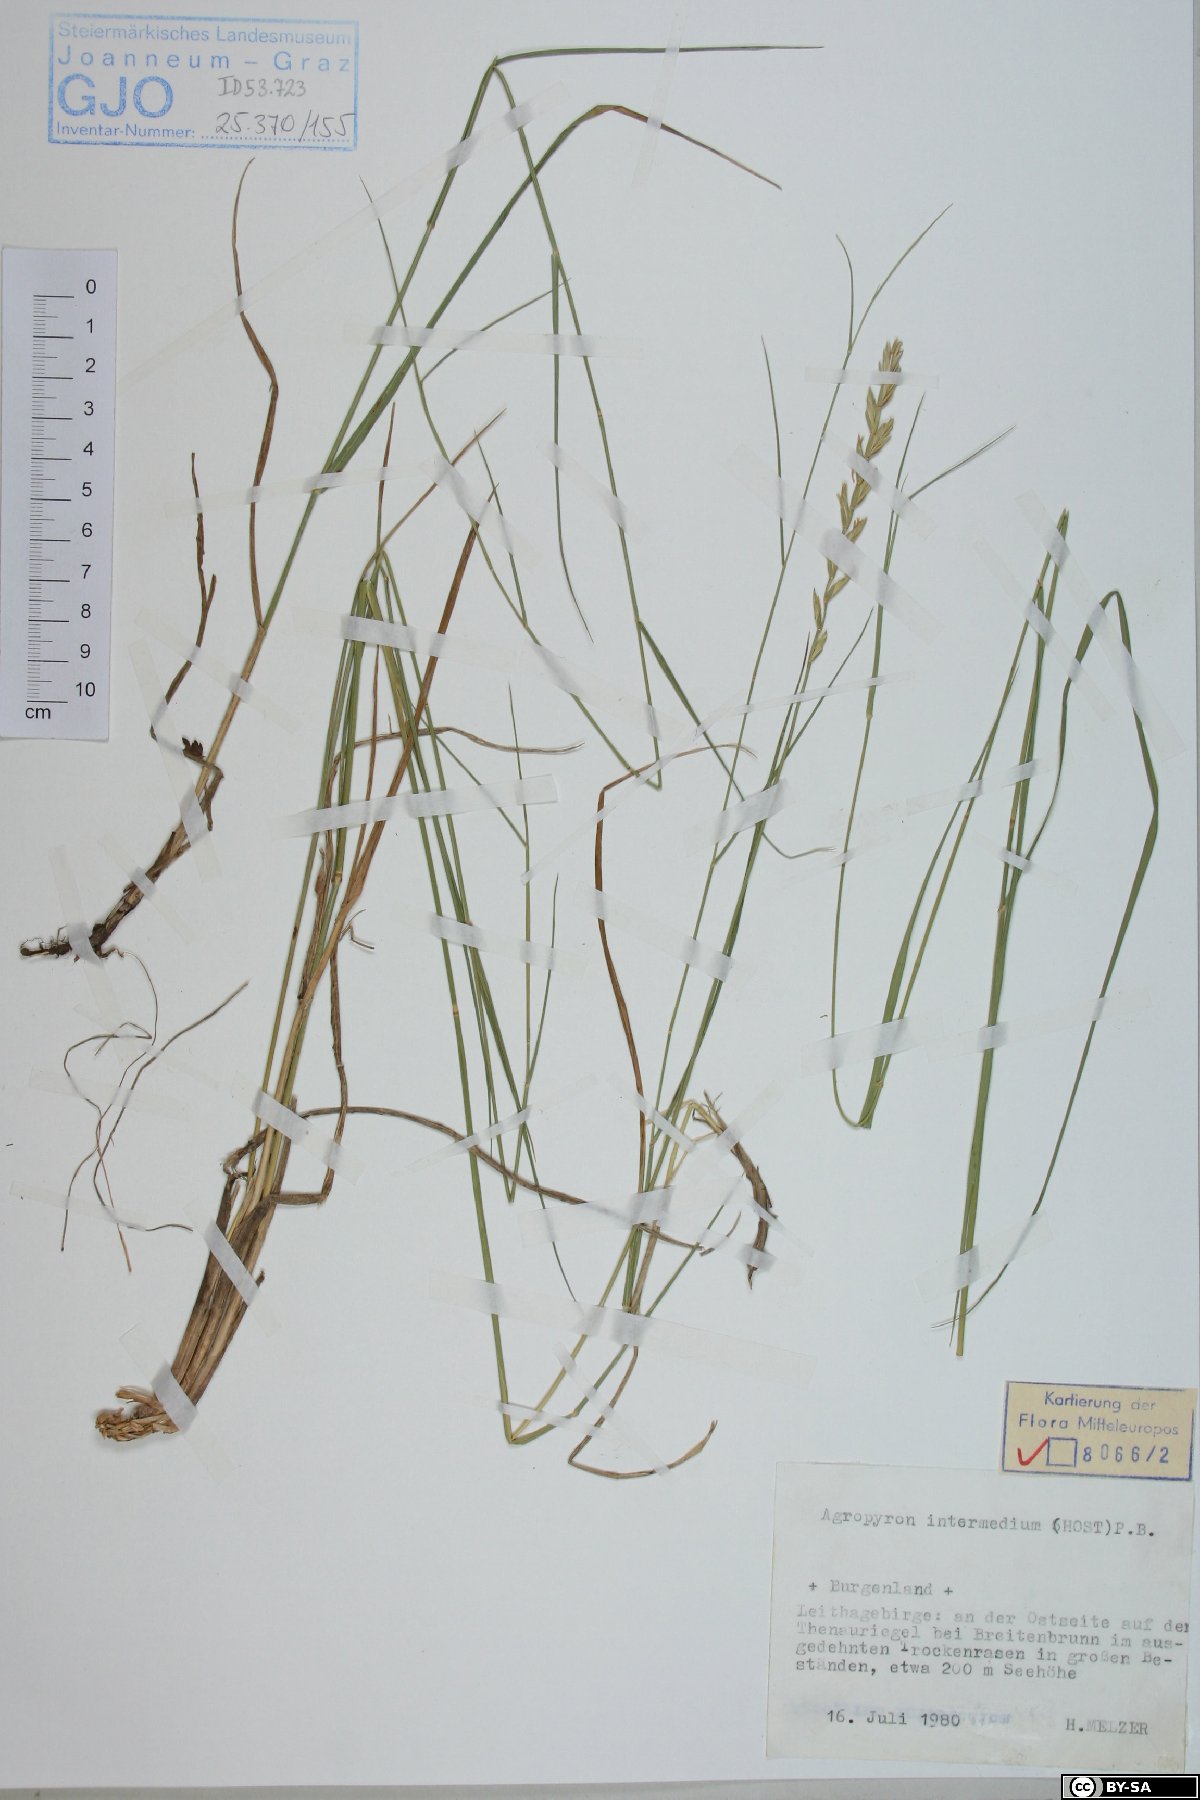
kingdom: Plantae
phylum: Tracheophyta
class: Liliopsida
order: Poales
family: Poaceae
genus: Thinopyrum
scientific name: Thinopyrum intermedium
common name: Intermediate wheatgrass
